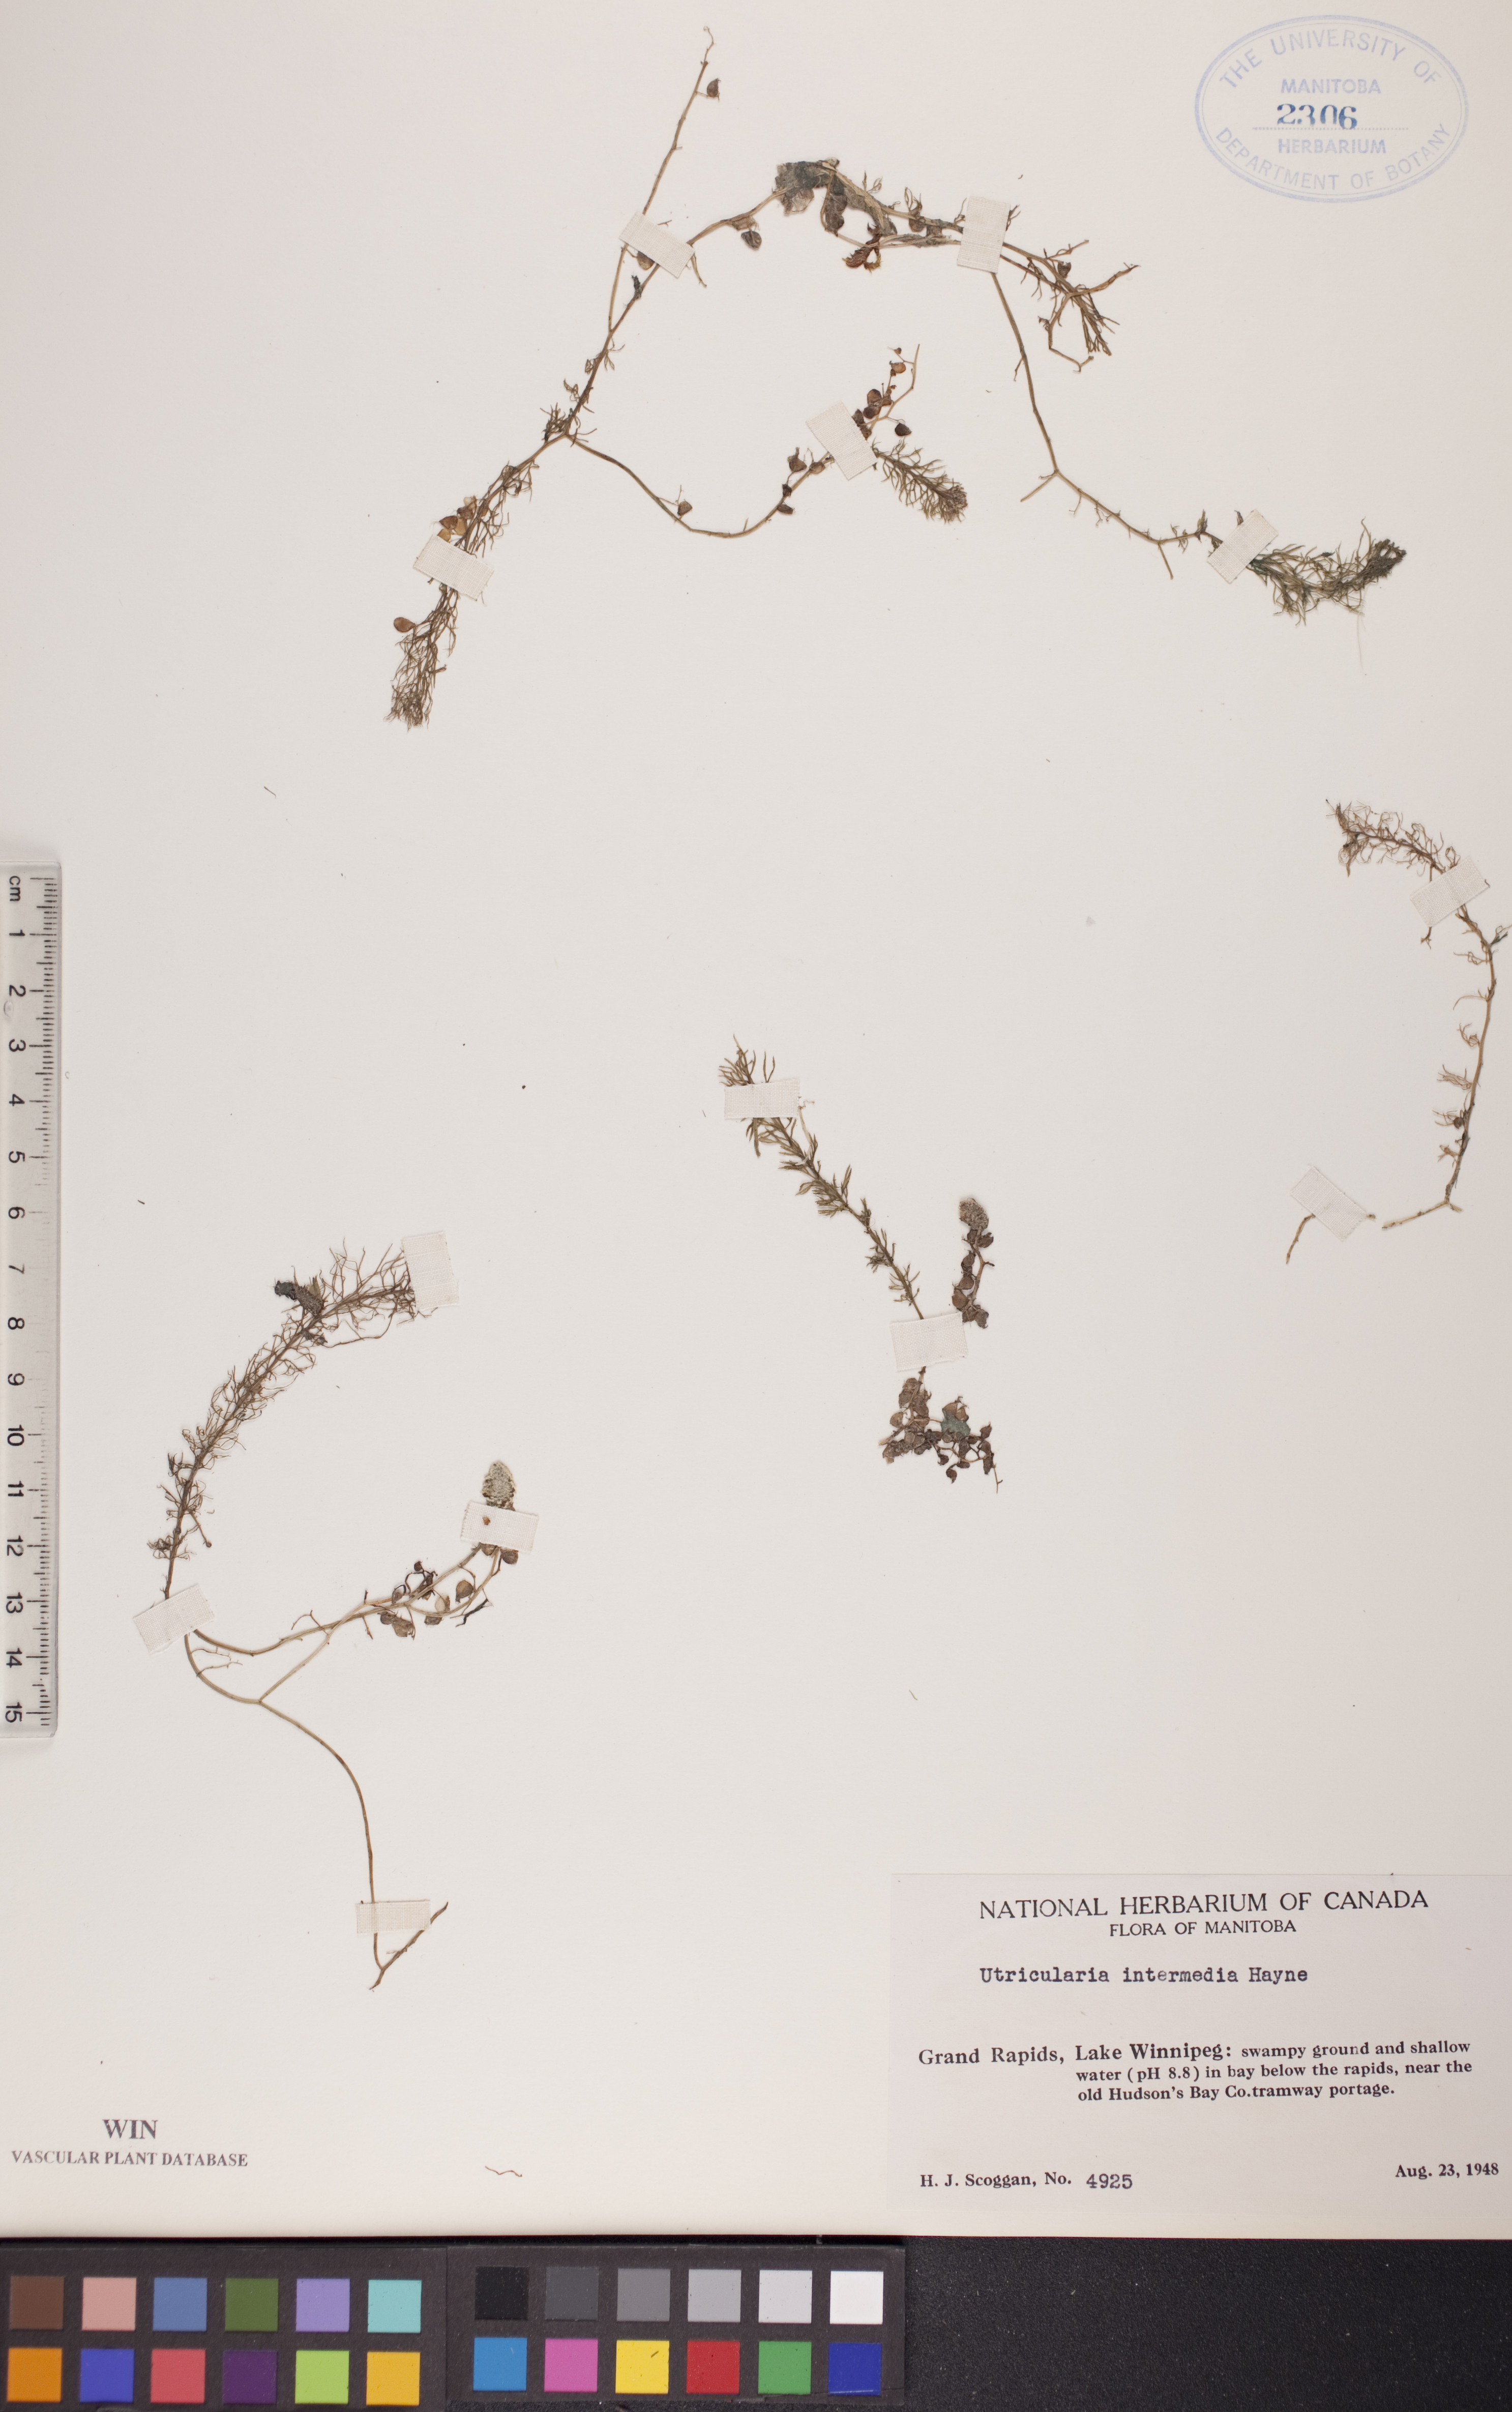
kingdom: Plantae
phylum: Tracheophyta
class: Magnoliopsida
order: Lamiales
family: Lentibulariaceae
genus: Utricularia
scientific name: Utricularia intermedia
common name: Intermediate bladderwort
